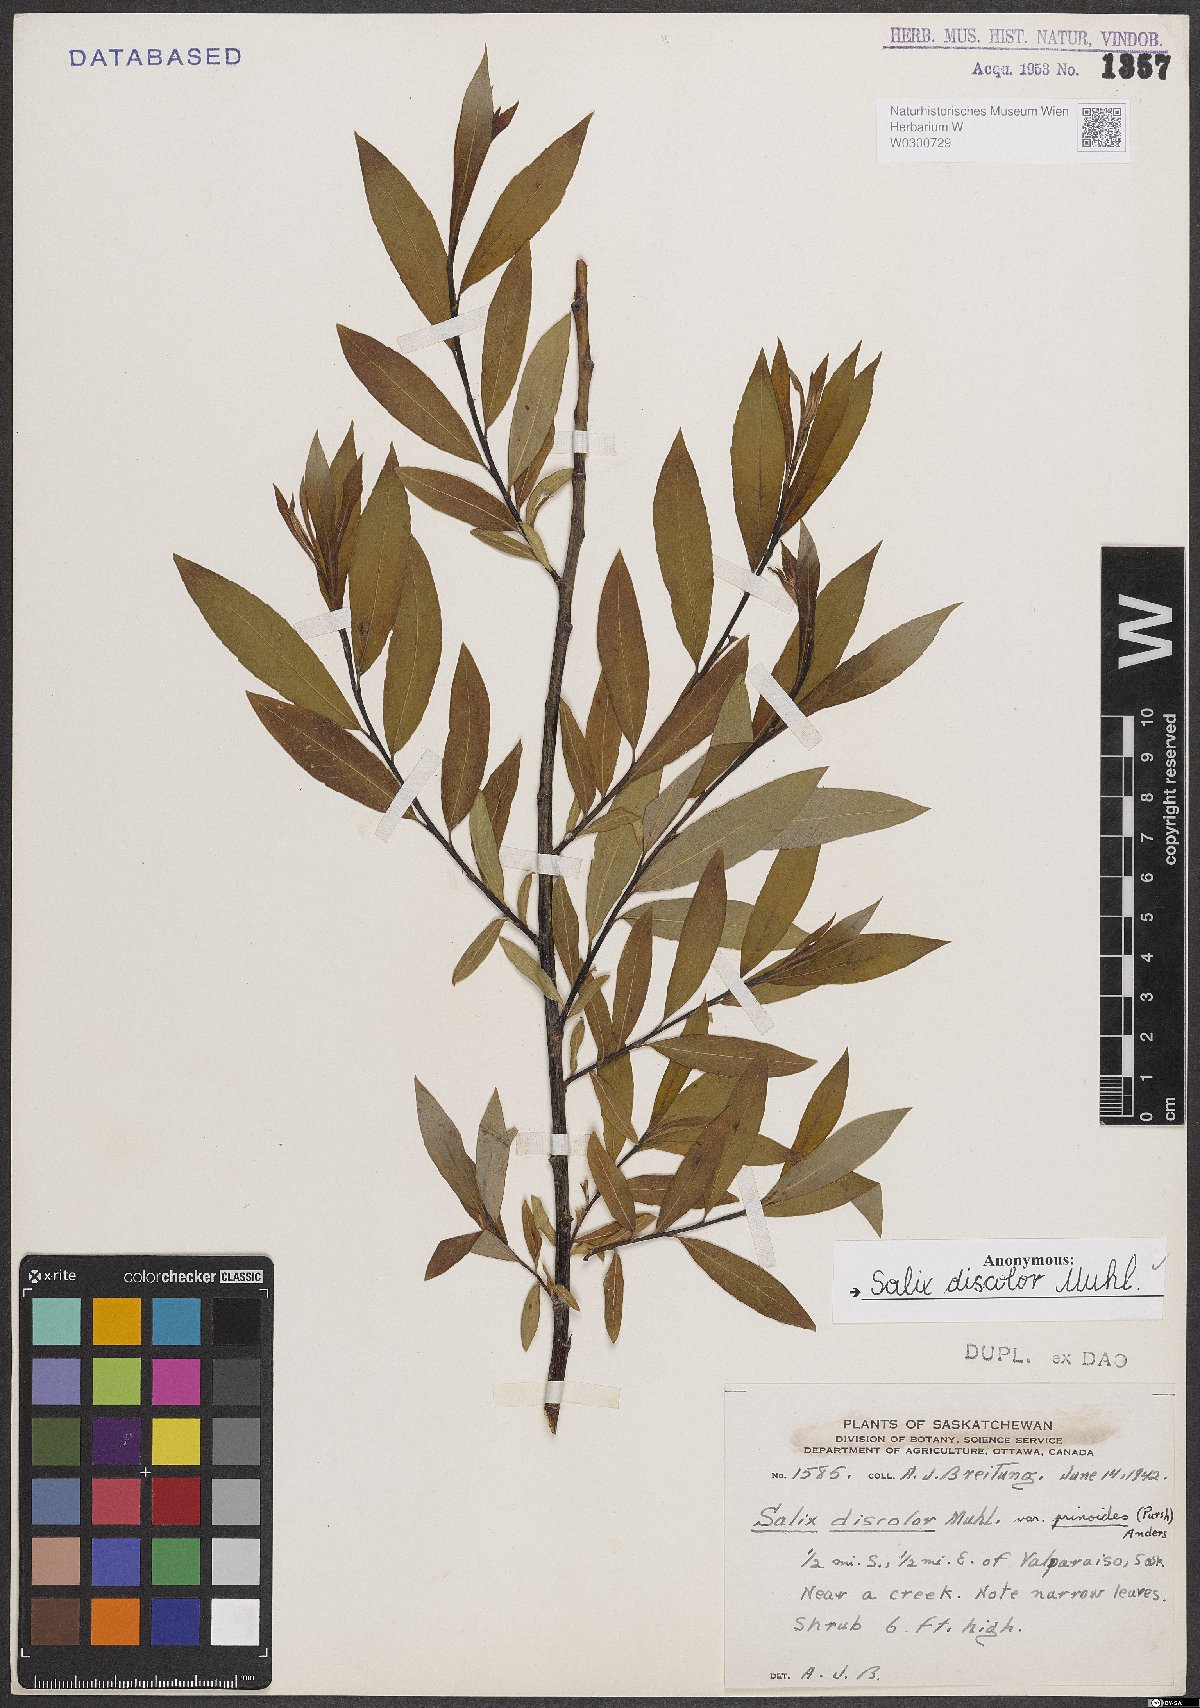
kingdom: Plantae
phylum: Tracheophyta
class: Magnoliopsida
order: Malpighiales
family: Salicaceae
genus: Salix
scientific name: Salix discolor
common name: Glaucous willow
